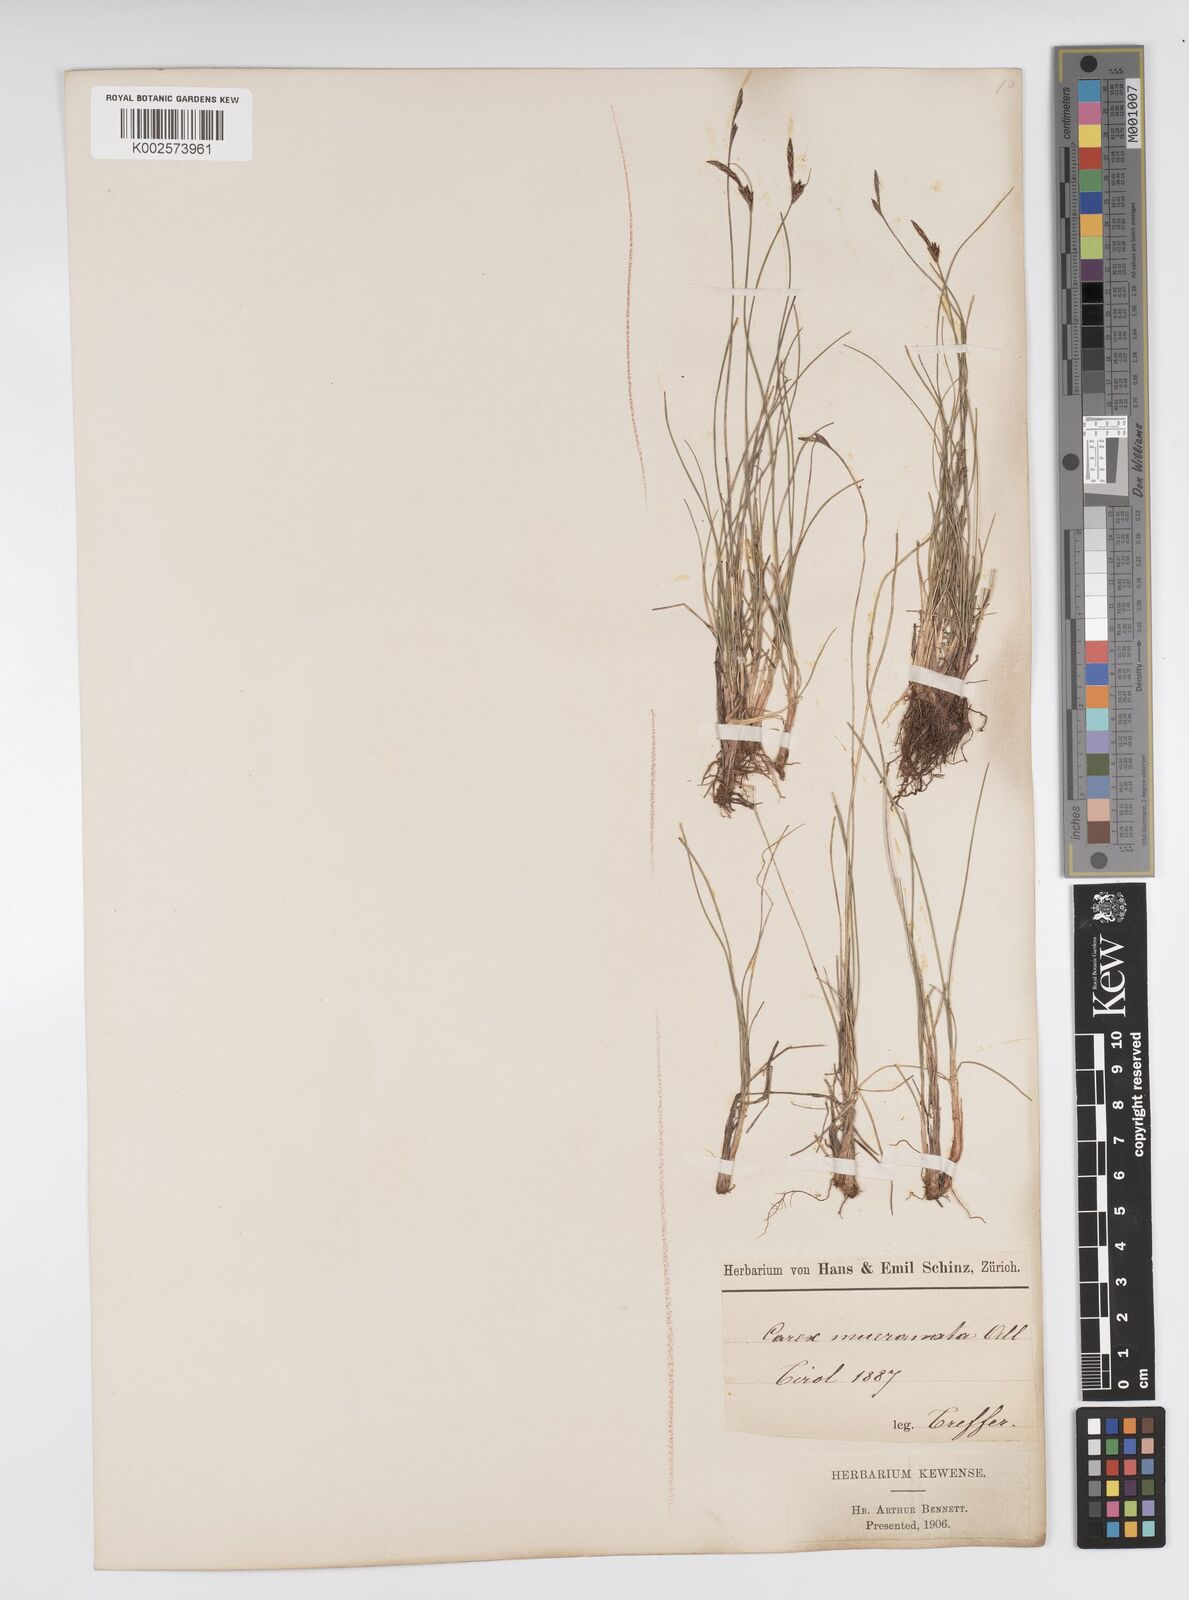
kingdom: Plantae
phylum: Tracheophyta
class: Liliopsida
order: Poales
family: Cyperaceae
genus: Carex
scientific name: Carex mucronata
